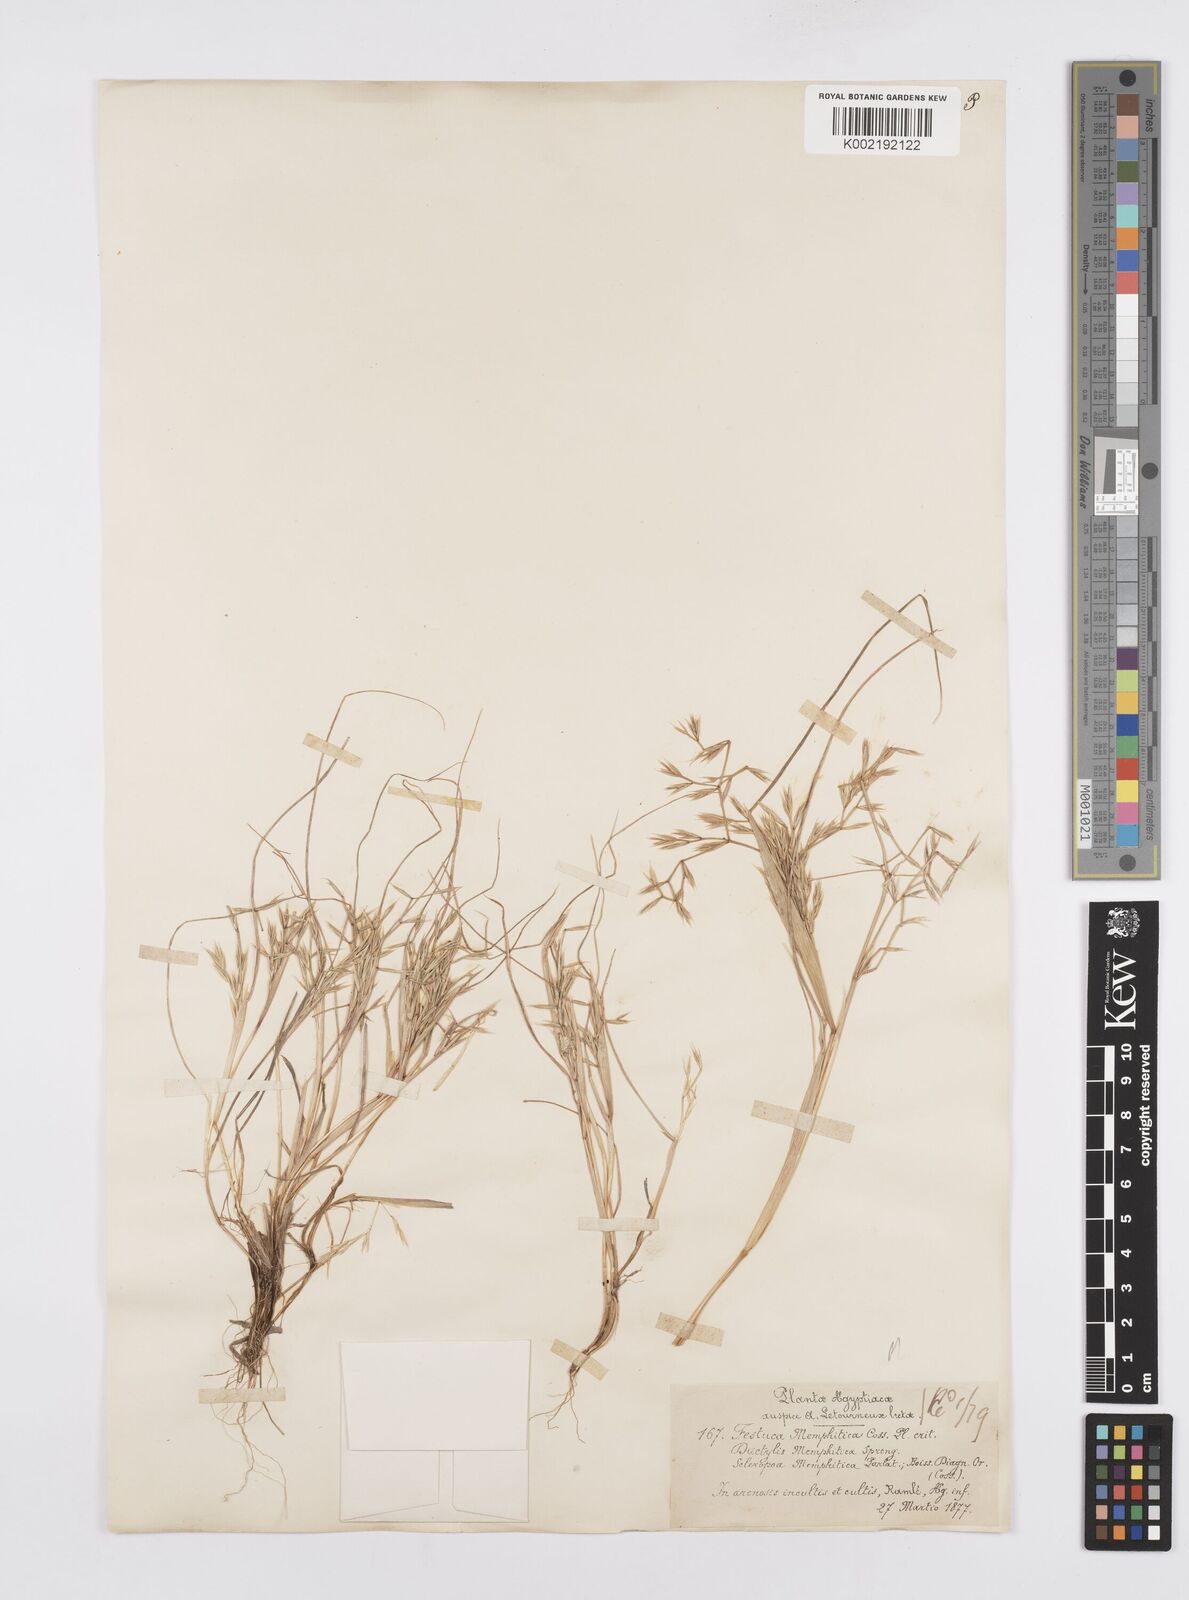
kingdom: Plantae
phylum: Tracheophyta
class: Liliopsida
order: Poales
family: Poaceae
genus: Cutandia
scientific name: Cutandia memphitica
